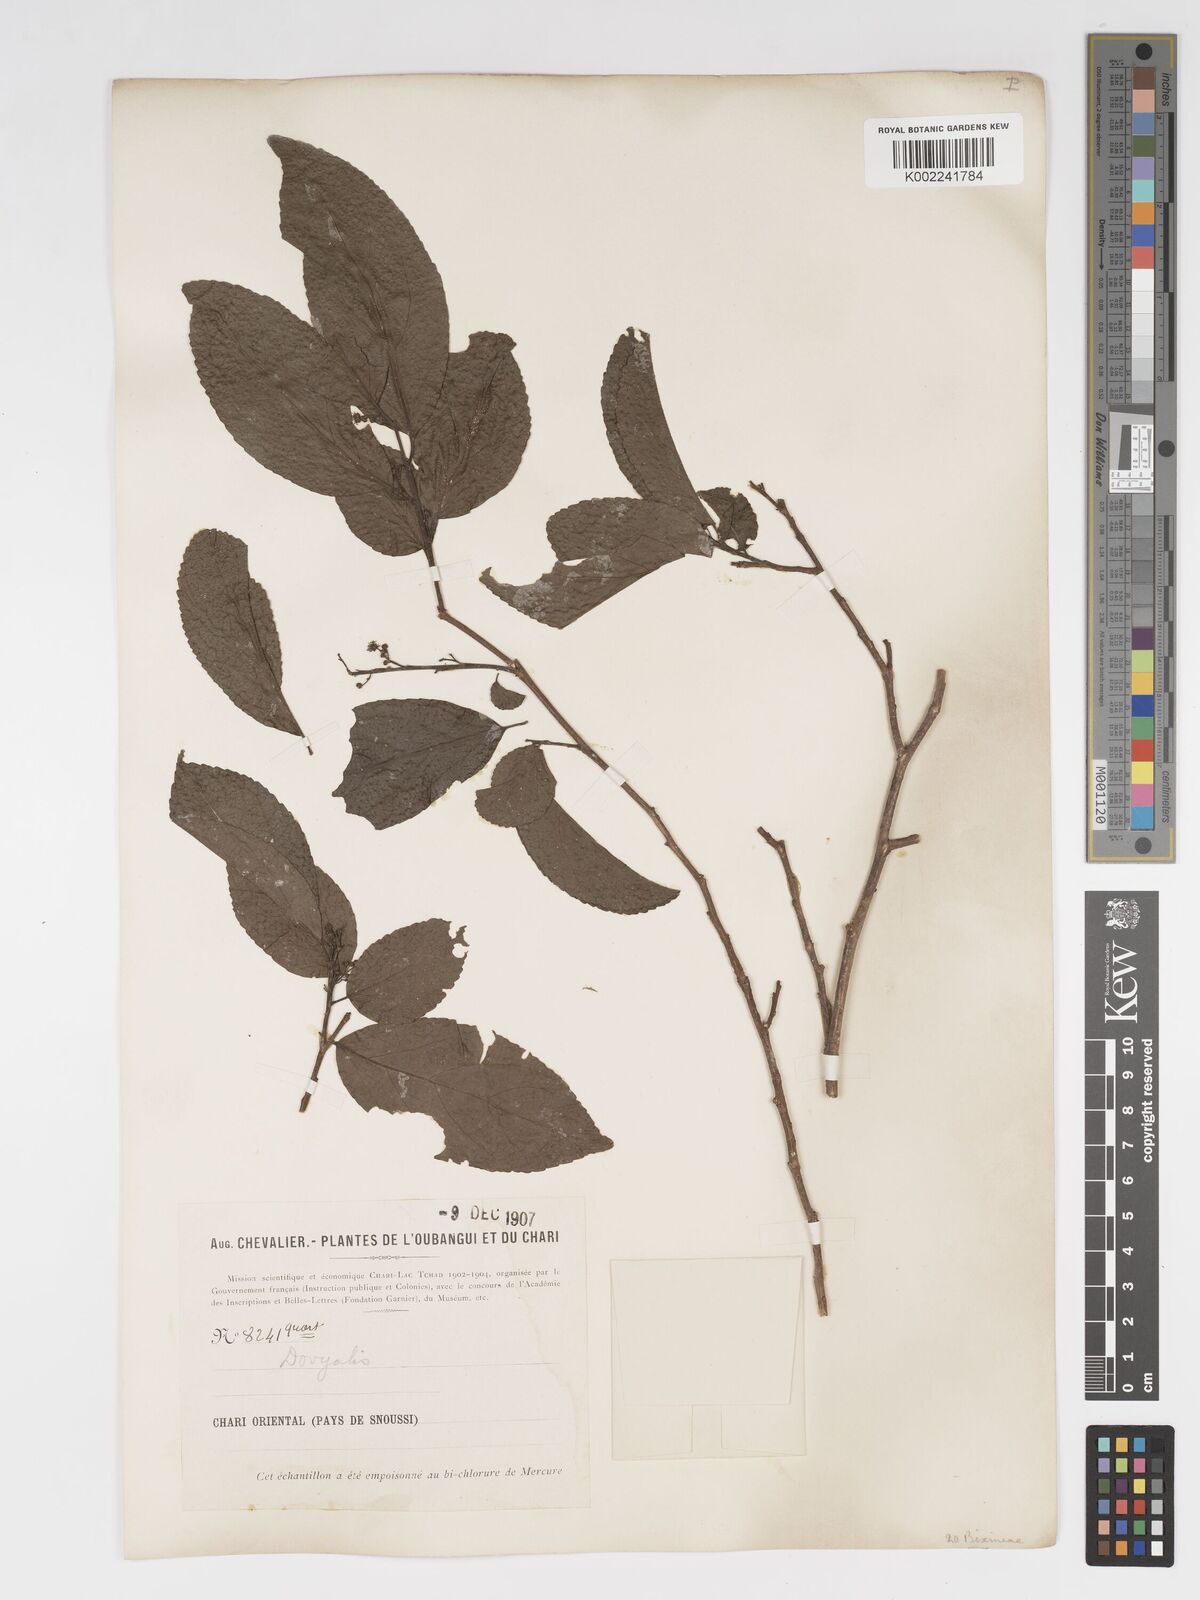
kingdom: Plantae
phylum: Tracheophyta
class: Magnoliopsida
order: Malpighiales
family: Salicaceae
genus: Flacourtia
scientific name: Flacourtia
